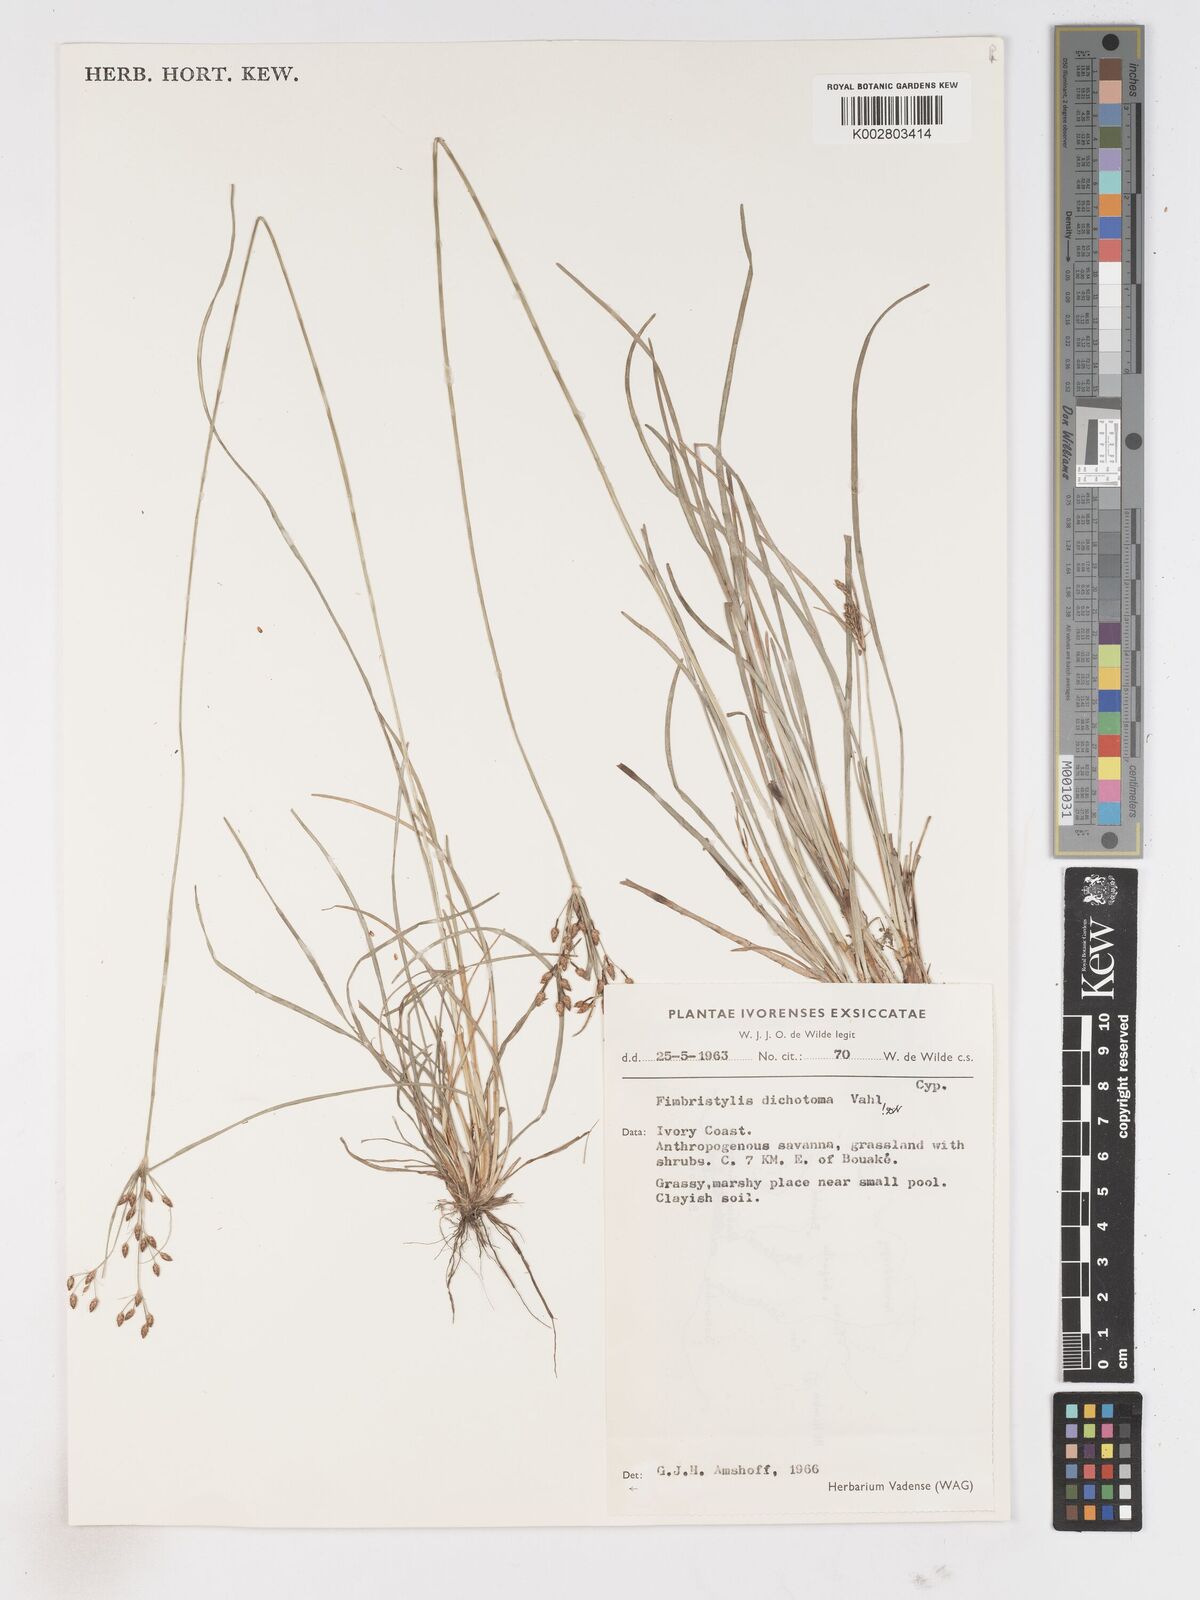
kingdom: Plantae
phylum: Tracheophyta
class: Liliopsida
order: Poales
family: Cyperaceae
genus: Fimbristylis
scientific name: Fimbristylis dichotoma
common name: Forked fimbry
